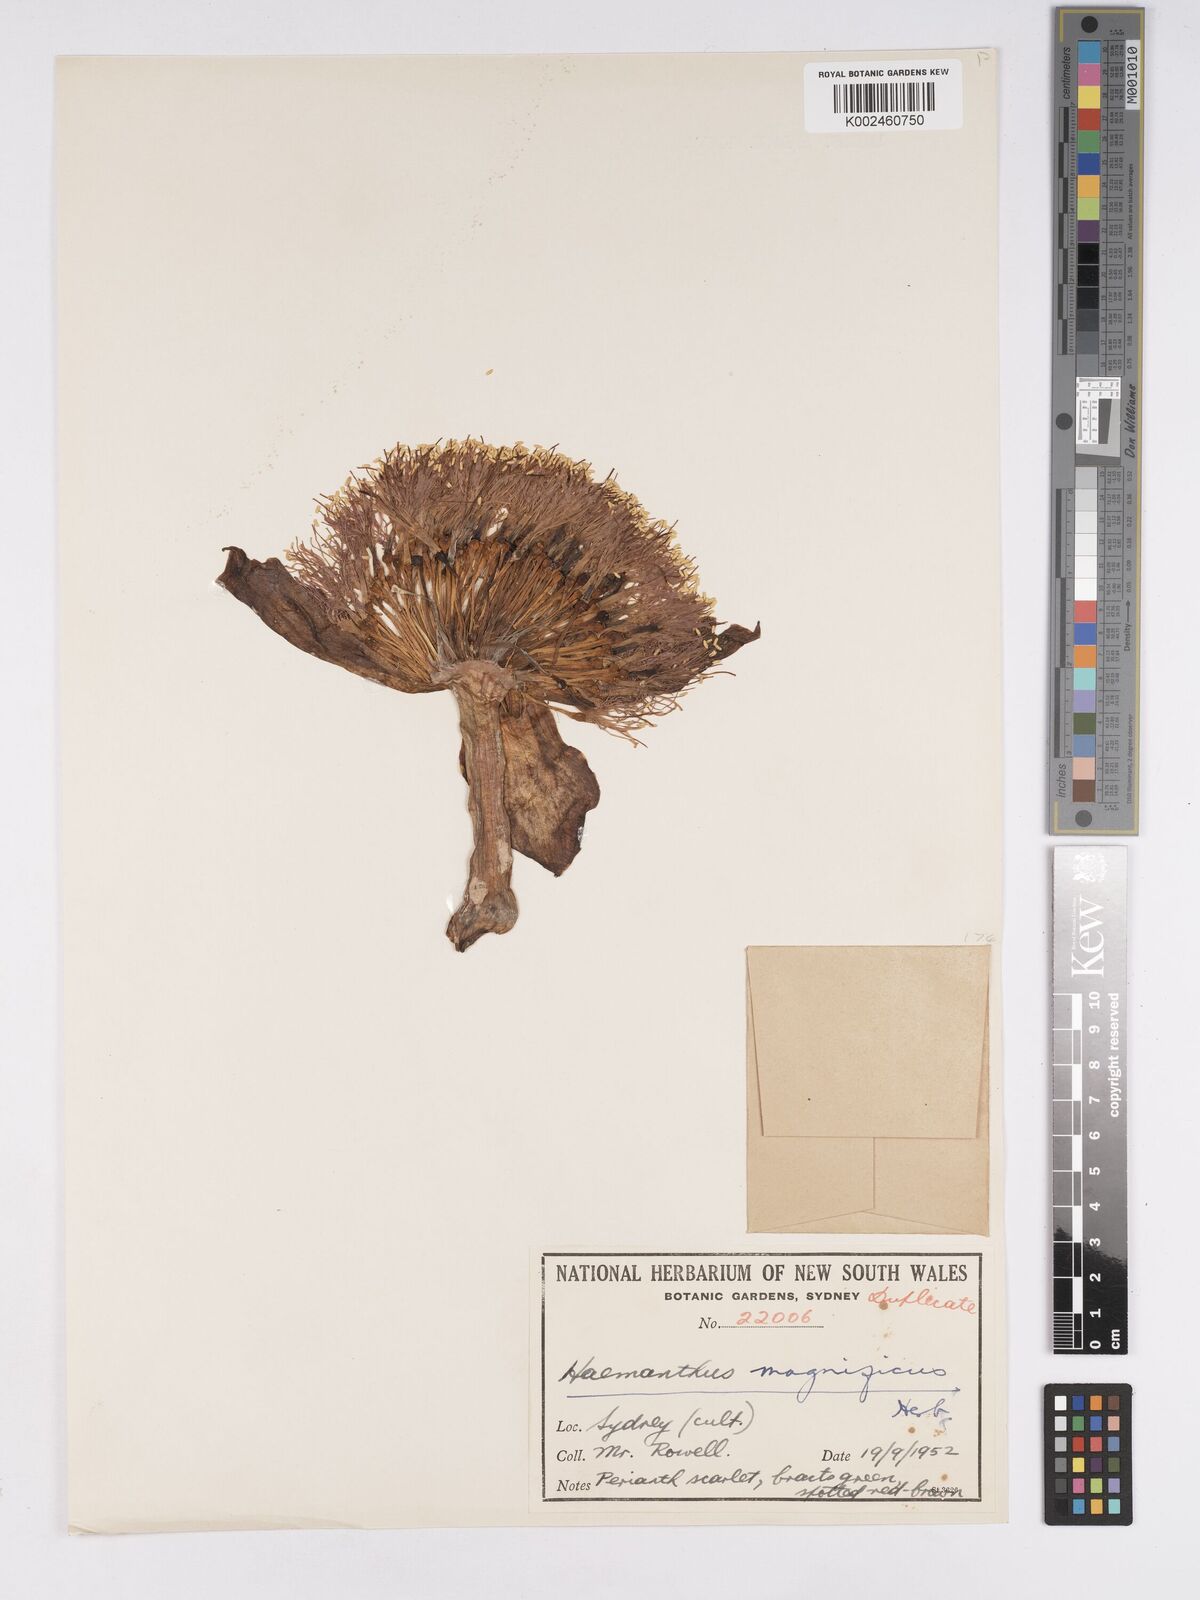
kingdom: Plantae
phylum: Tracheophyta
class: Liliopsida
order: Asparagales
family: Amaryllidaceae
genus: Scadoxus
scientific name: Scadoxus puniceus
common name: Royal-paintbrush
